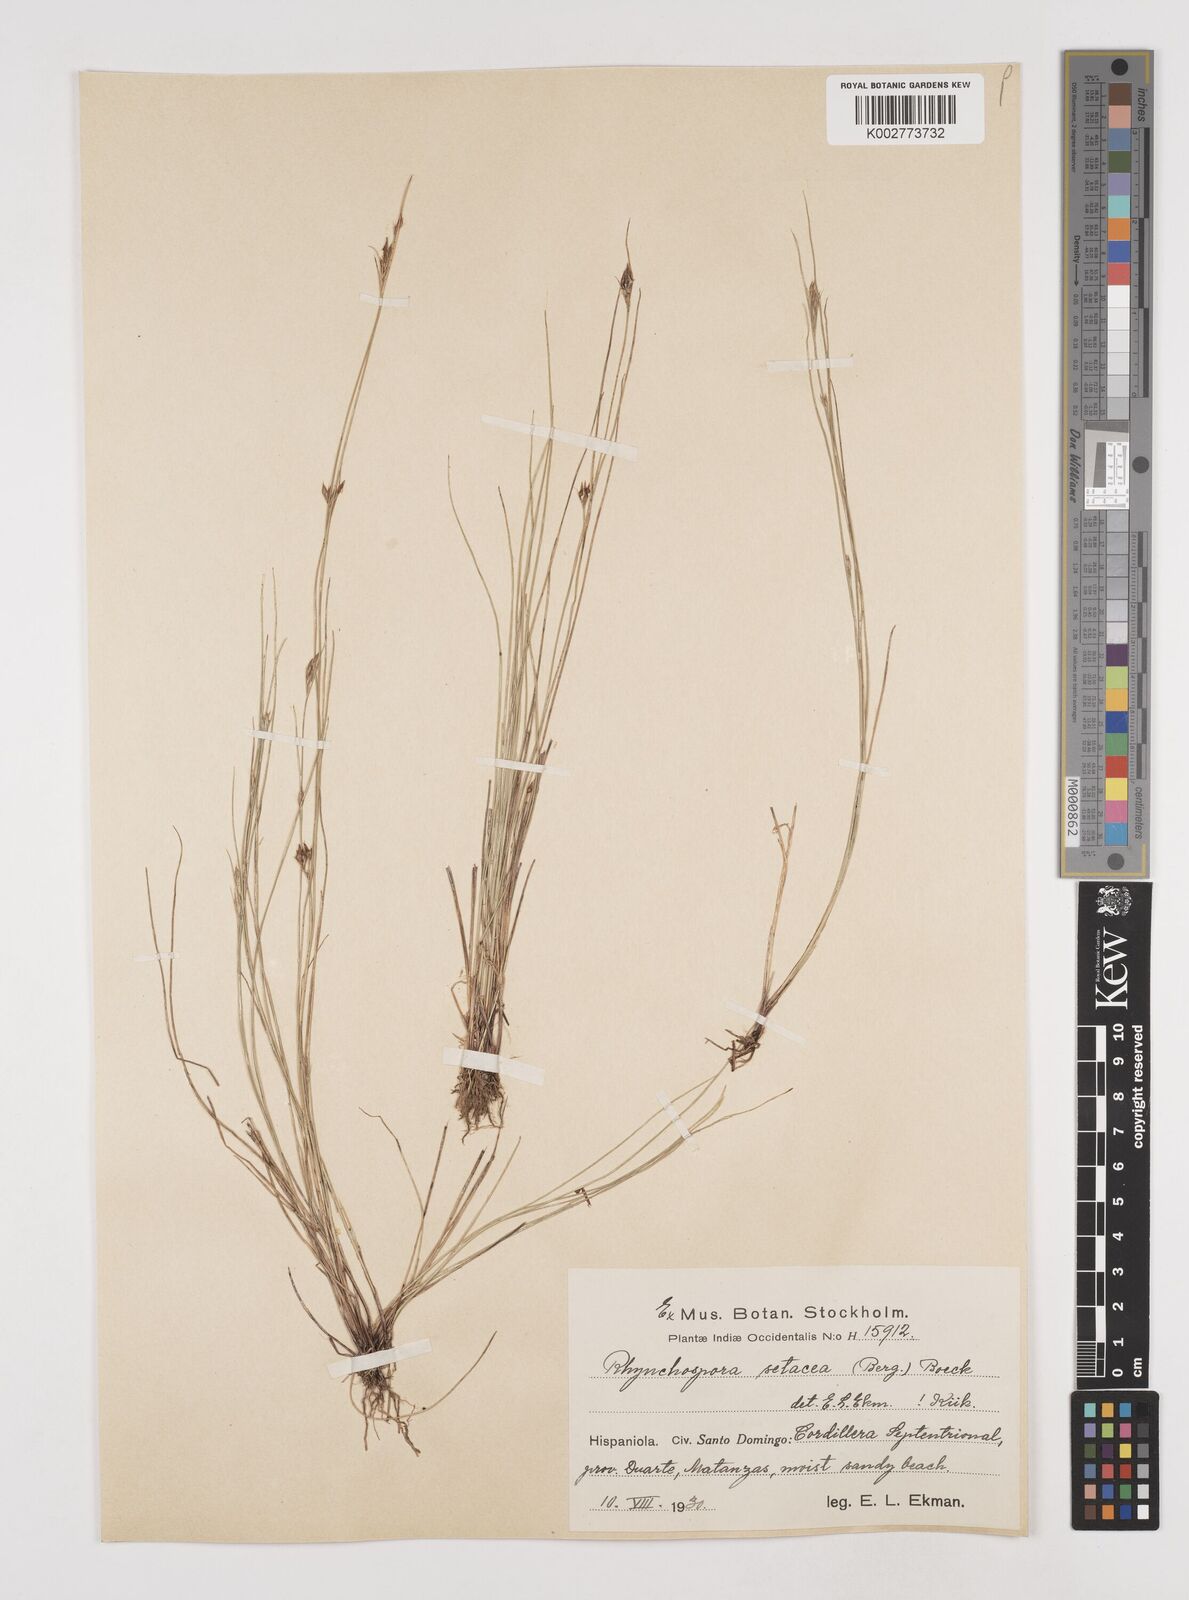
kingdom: Plantae
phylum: Tracheophyta
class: Liliopsida
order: Poales
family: Cyperaceae
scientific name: Cyperaceae
